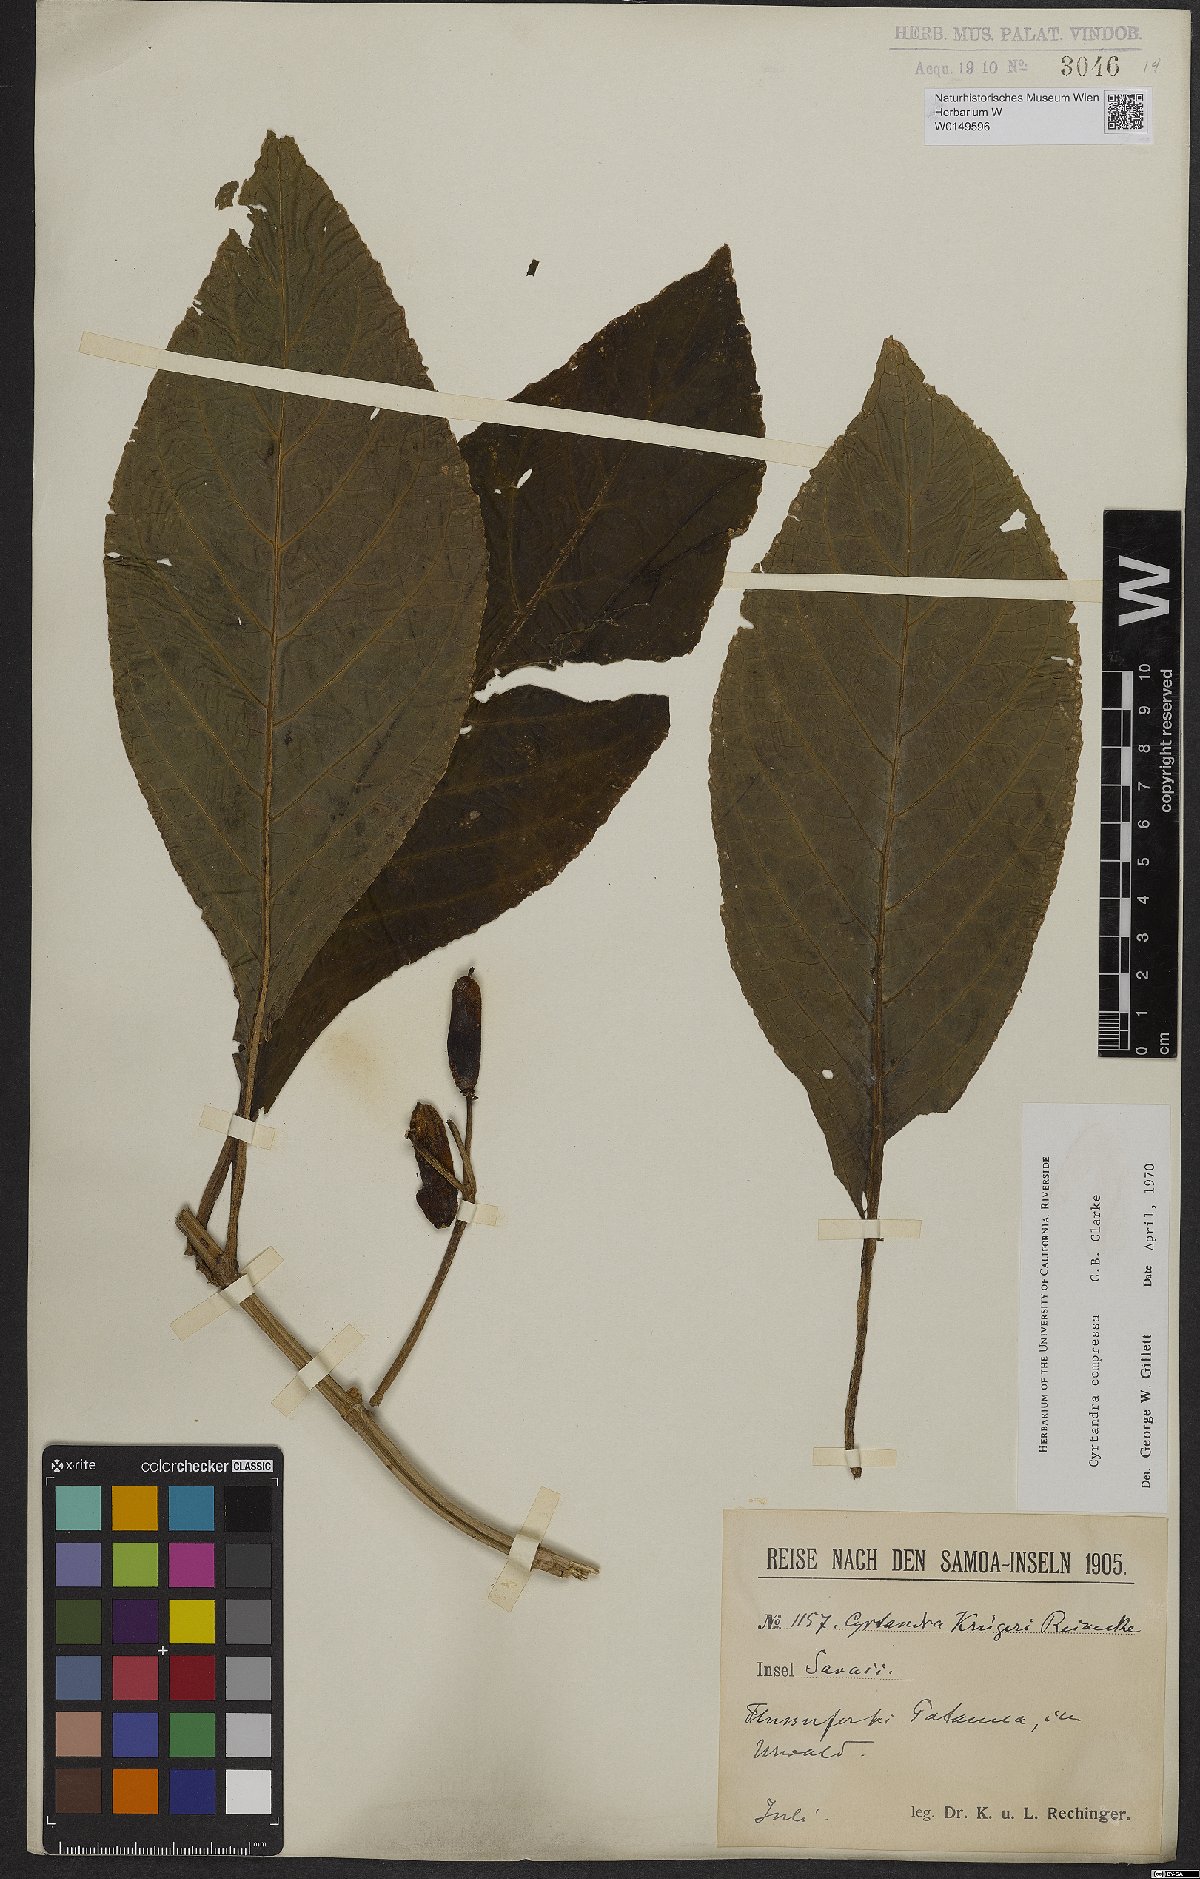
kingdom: Plantae
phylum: Tracheophyta
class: Magnoliopsida
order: Lamiales
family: Gesneriaceae
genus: Cyrtandra
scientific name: Cyrtandra compressa
